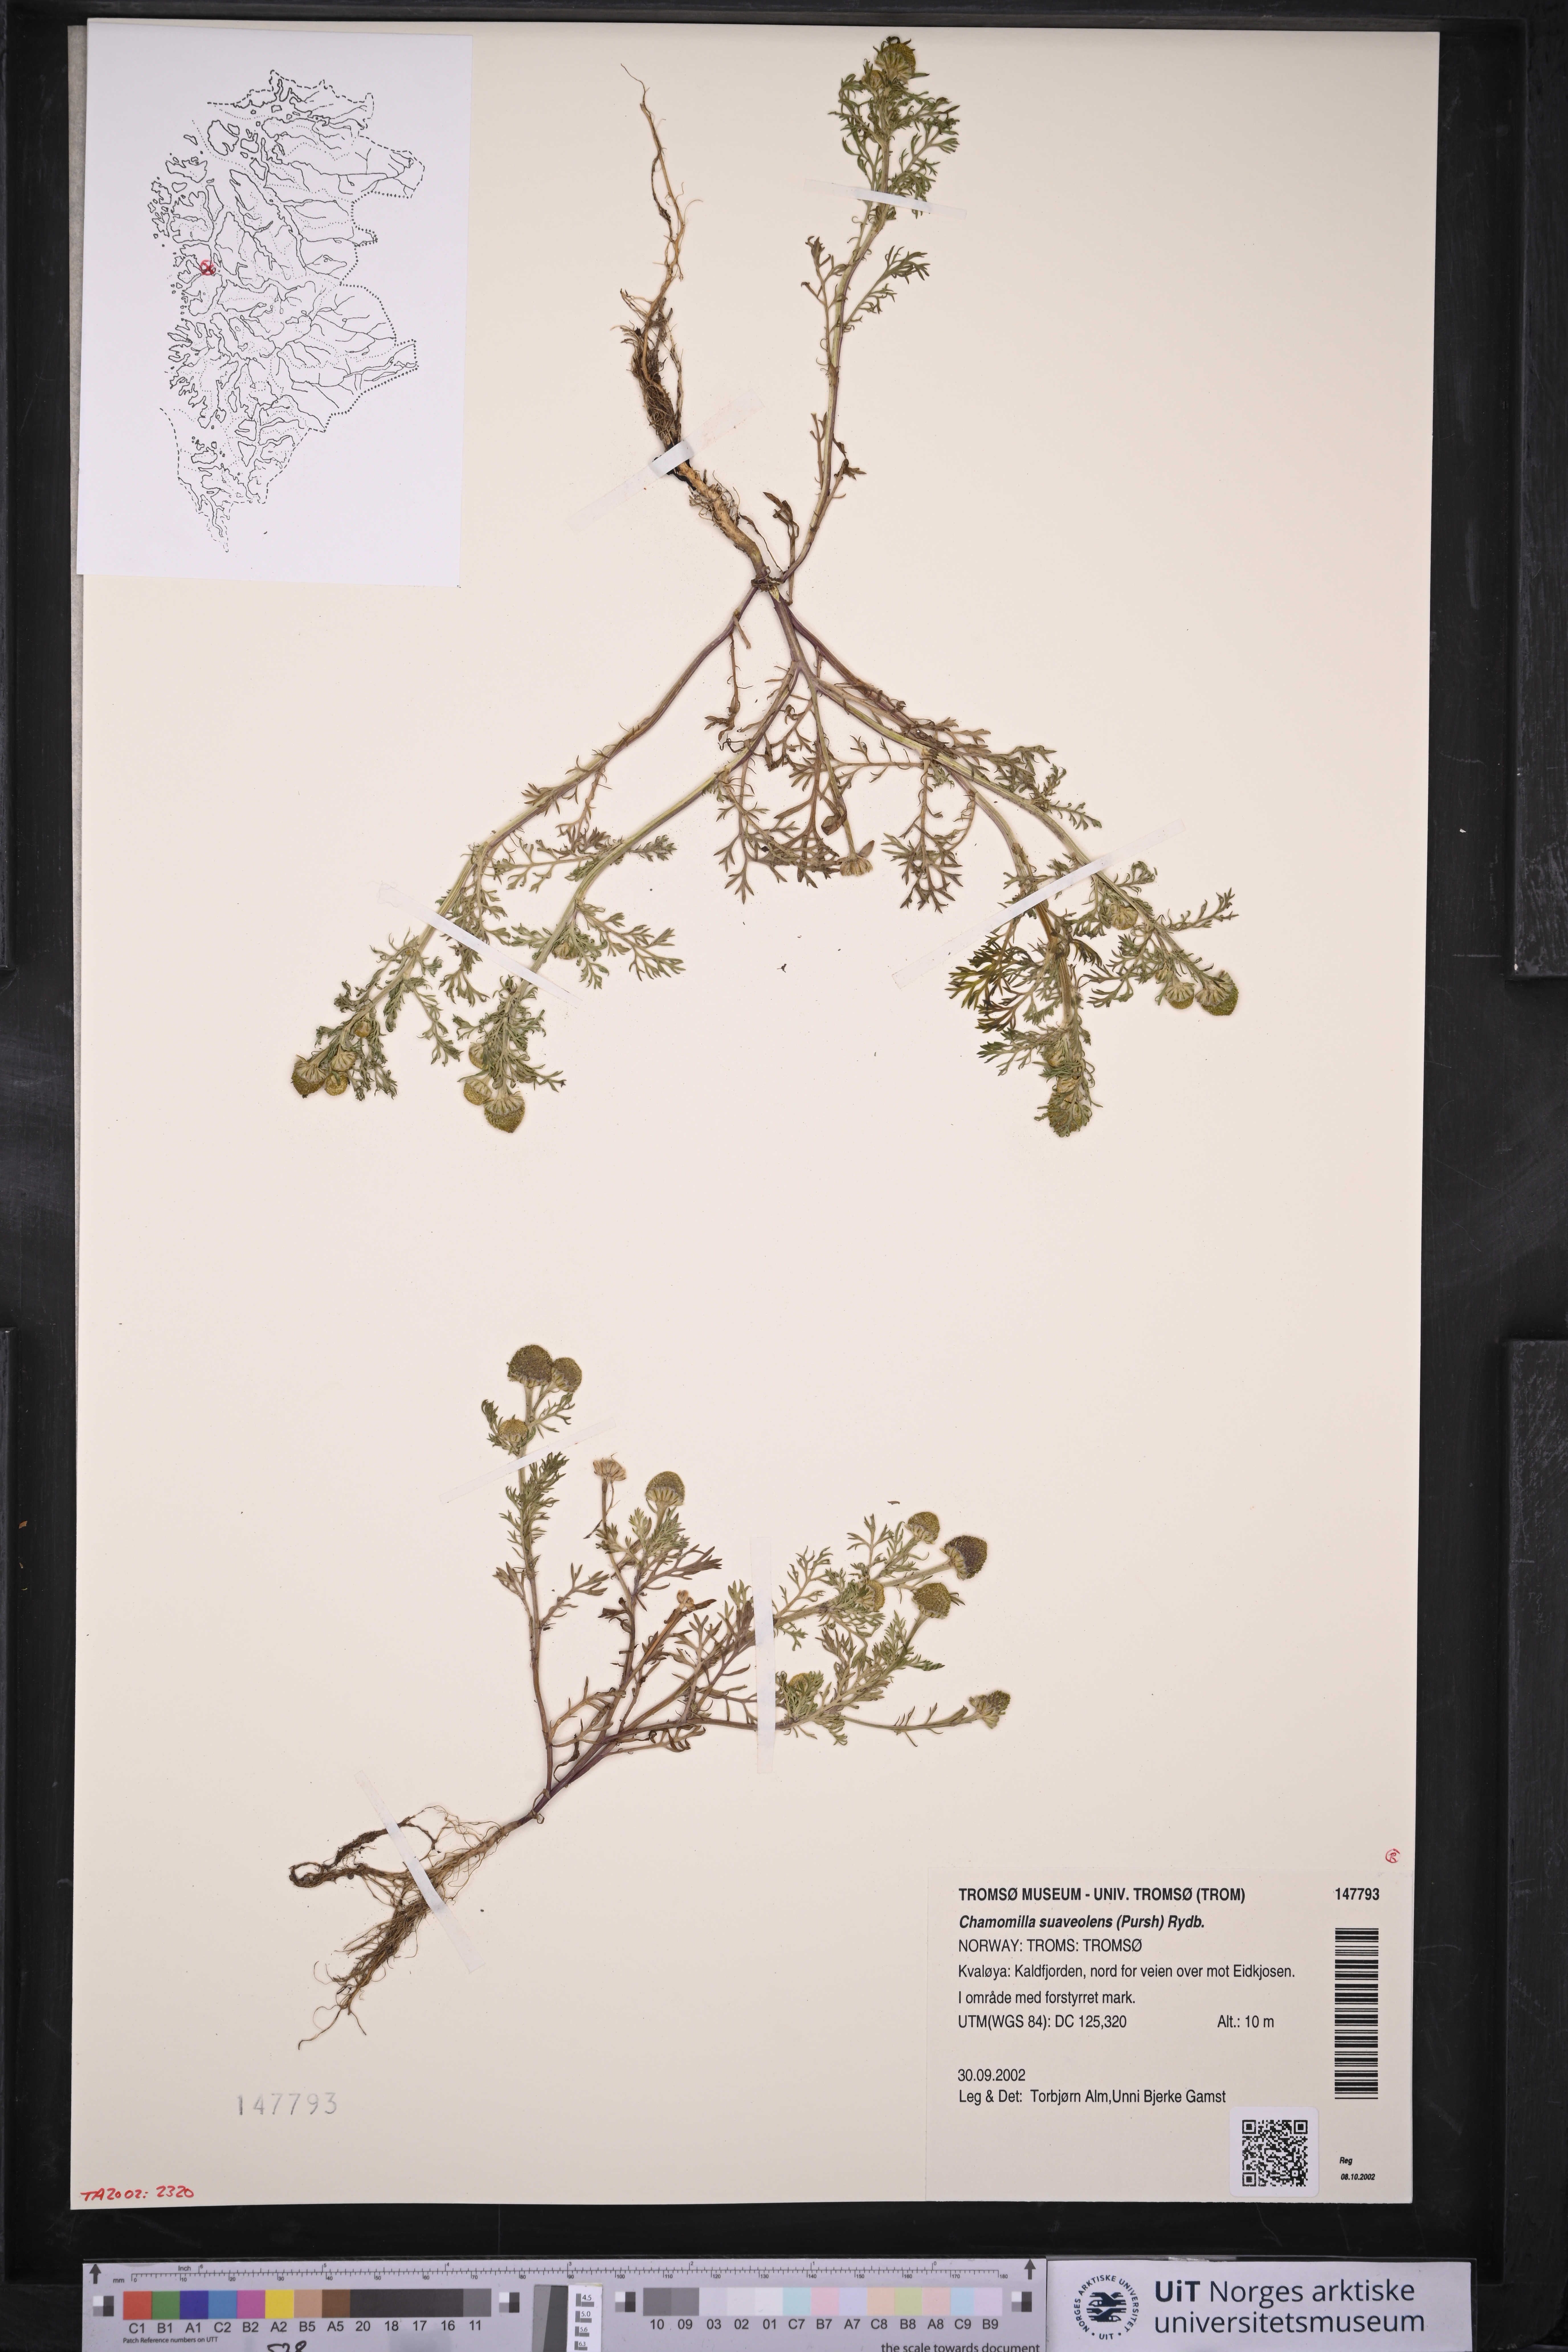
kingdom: Plantae
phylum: Tracheophyta
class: Magnoliopsida
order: Asterales
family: Asteraceae
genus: Matricaria
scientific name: Matricaria discoidea
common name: Disc mayweed
